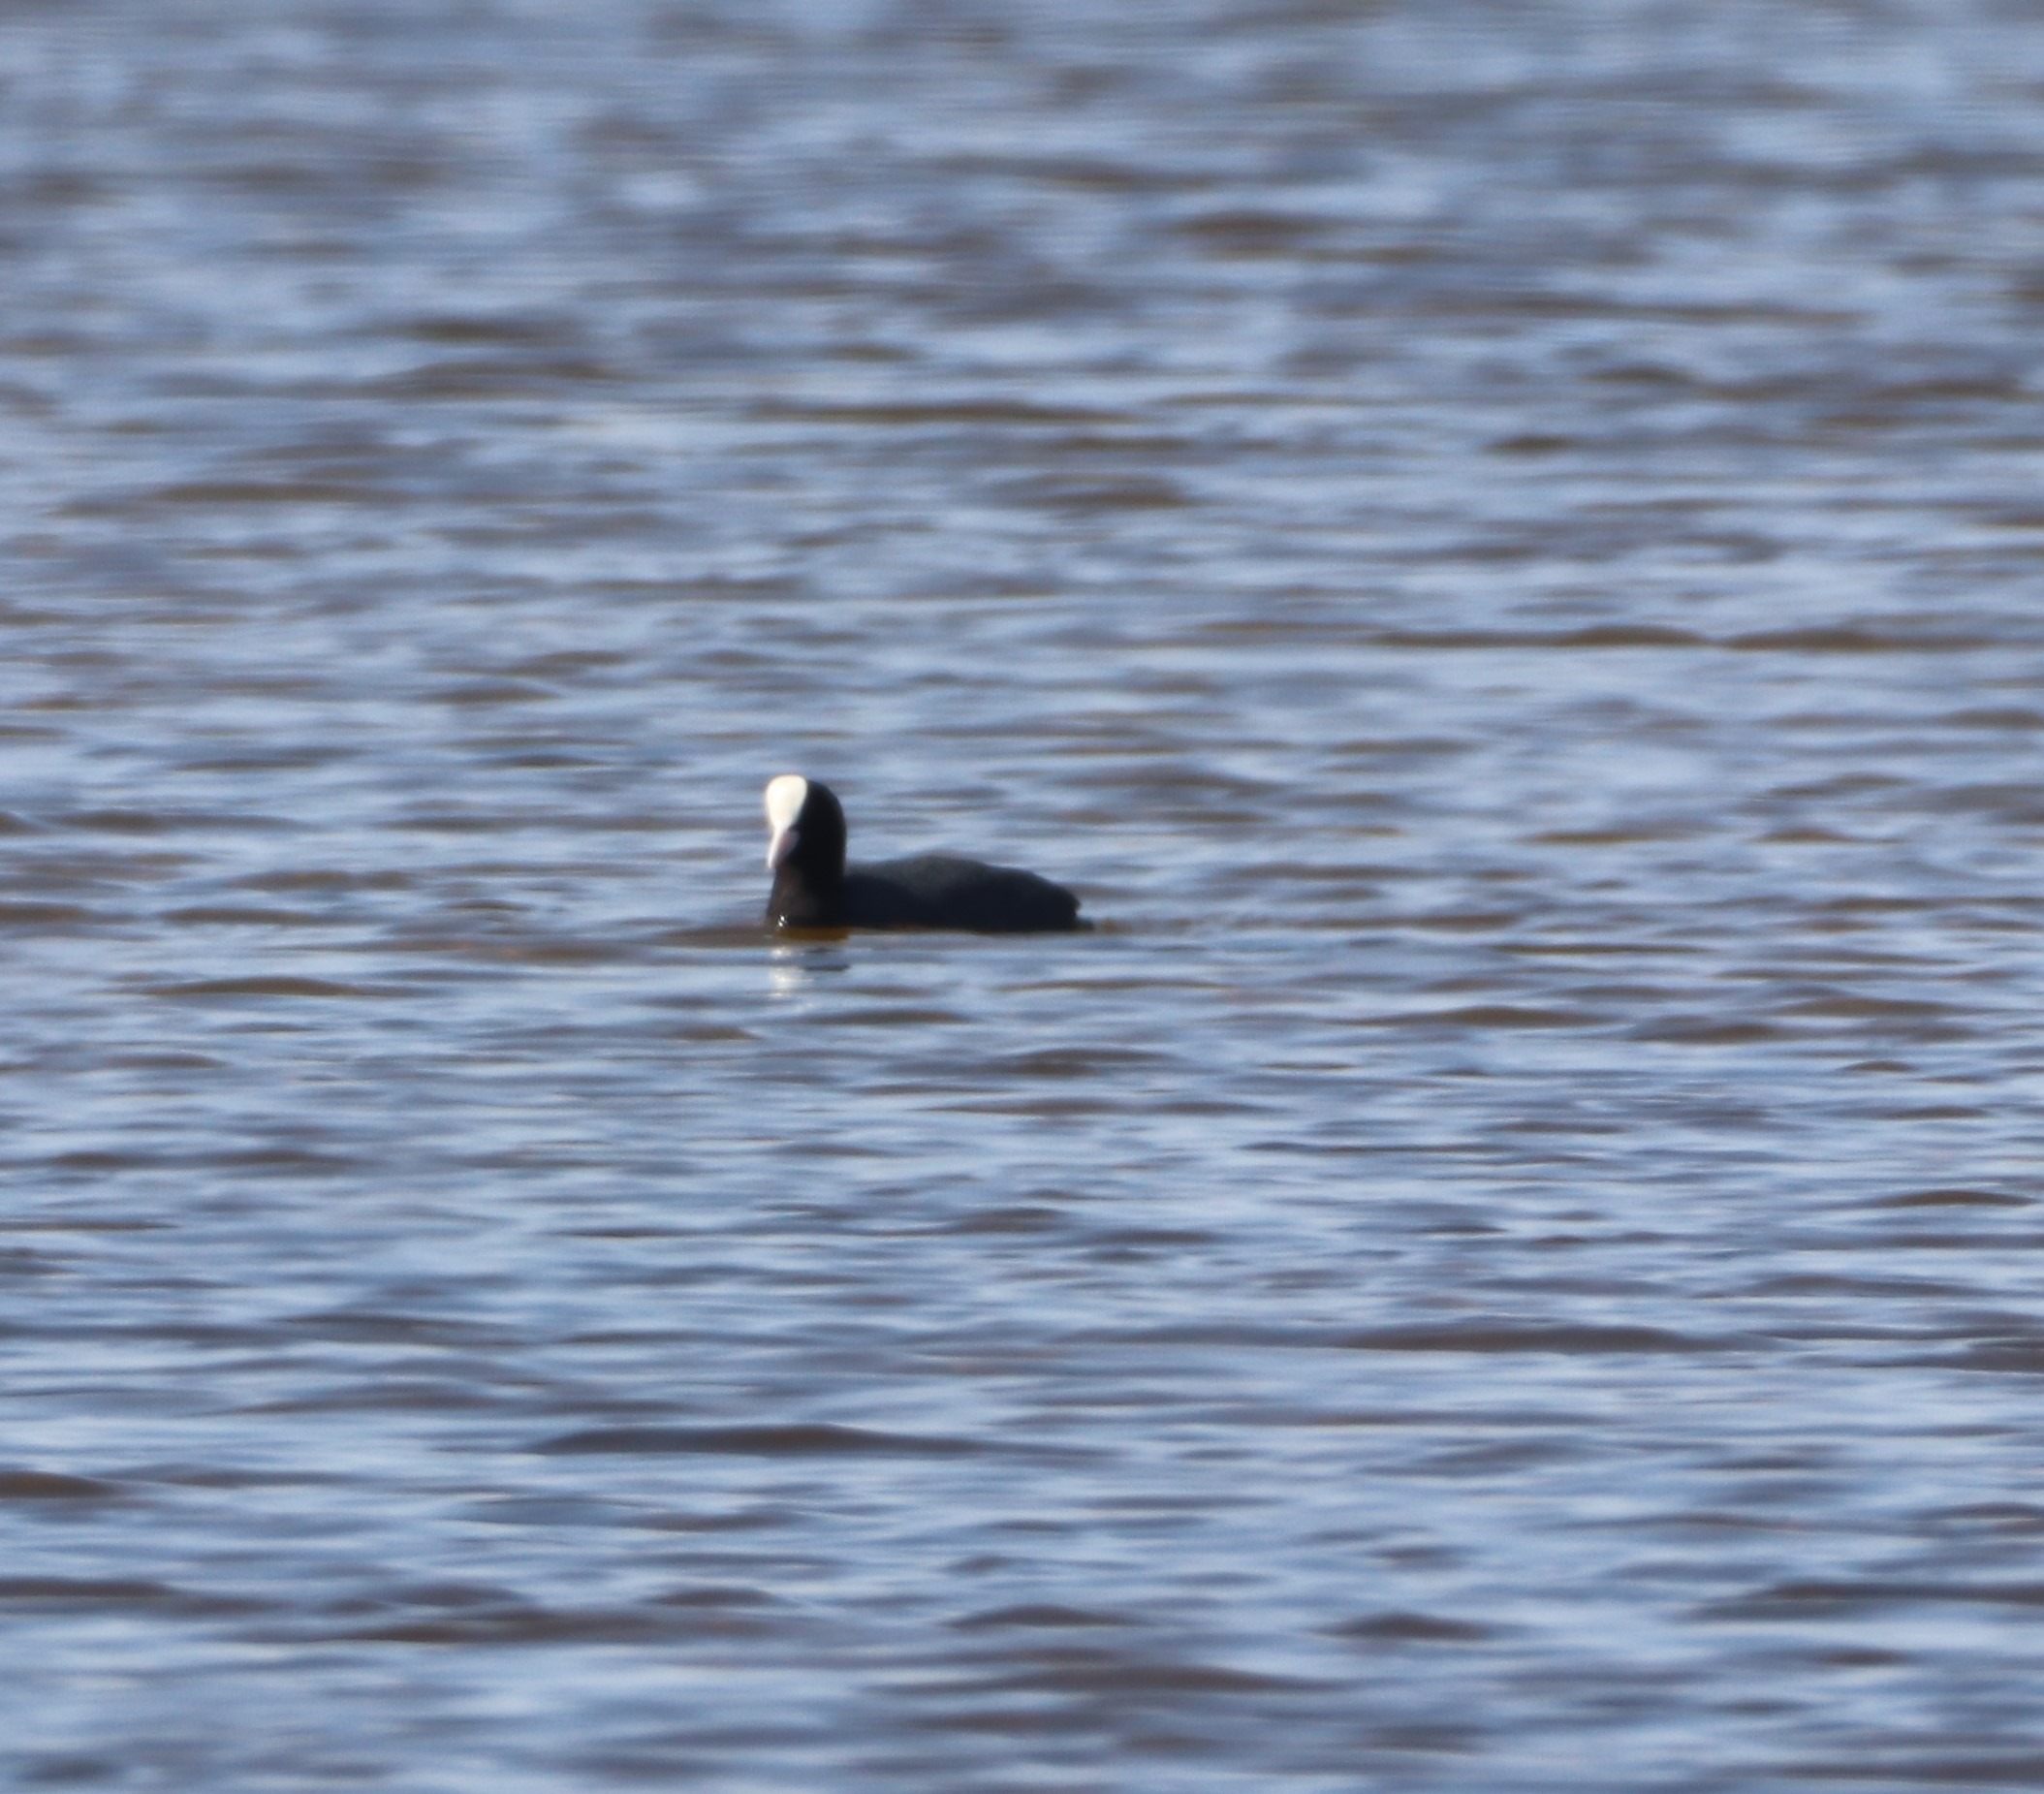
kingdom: Animalia
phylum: Chordata
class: Aves
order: Gruiformes
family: Rallidae
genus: Fulica
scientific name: Fulica atra
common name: Blishøne
